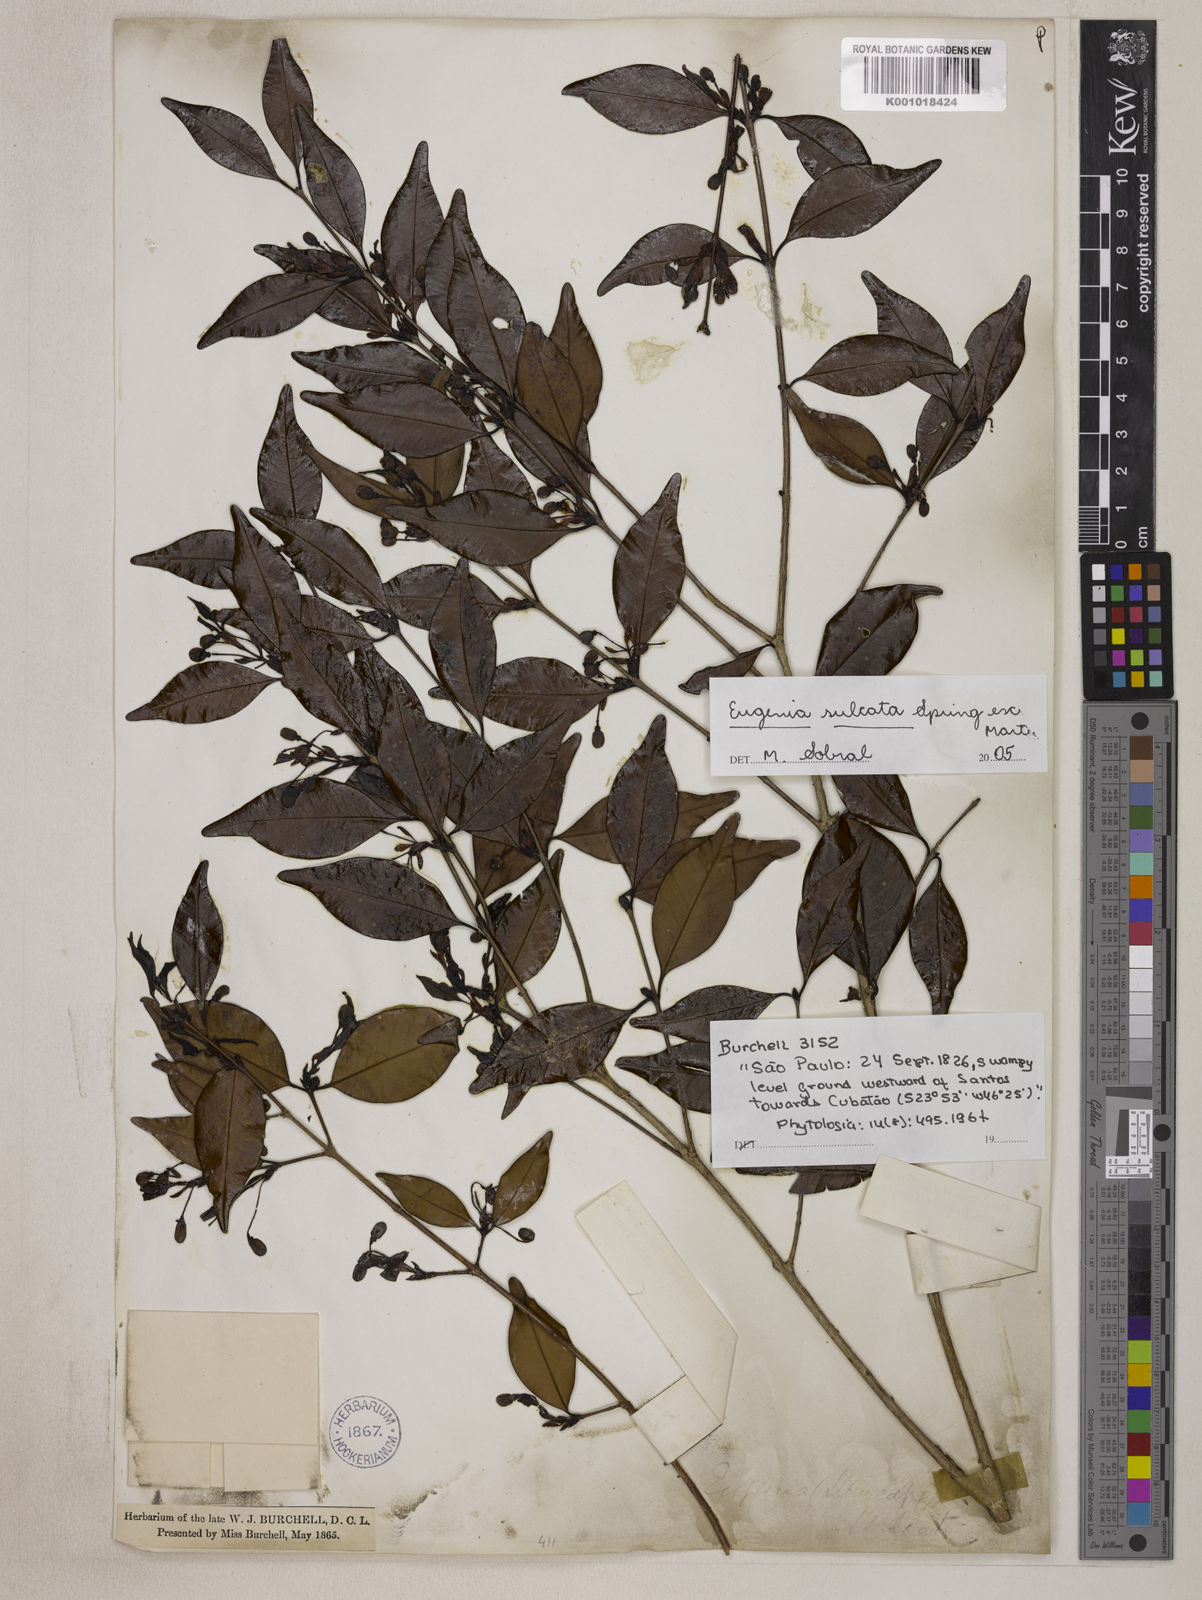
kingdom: Plantae
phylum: Tracheophyta
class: Magnoliopsida
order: Myrtales
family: Myrtaceae
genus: Eugenia
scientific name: Eugenia sulcata
